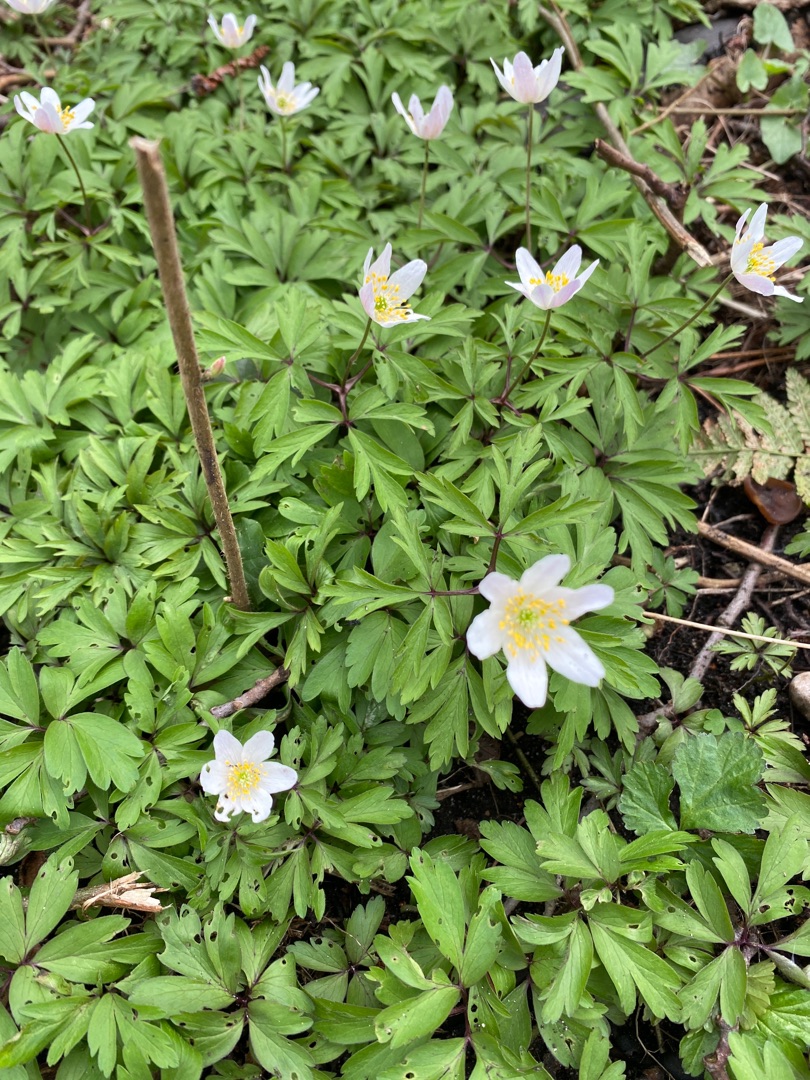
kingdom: Plantae
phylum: Tracheophyta
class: Magnoliopsida
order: Ranunculales
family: Ranunculaceae
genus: Anemone
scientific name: Anemone nemorosa
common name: Hvid anemone
